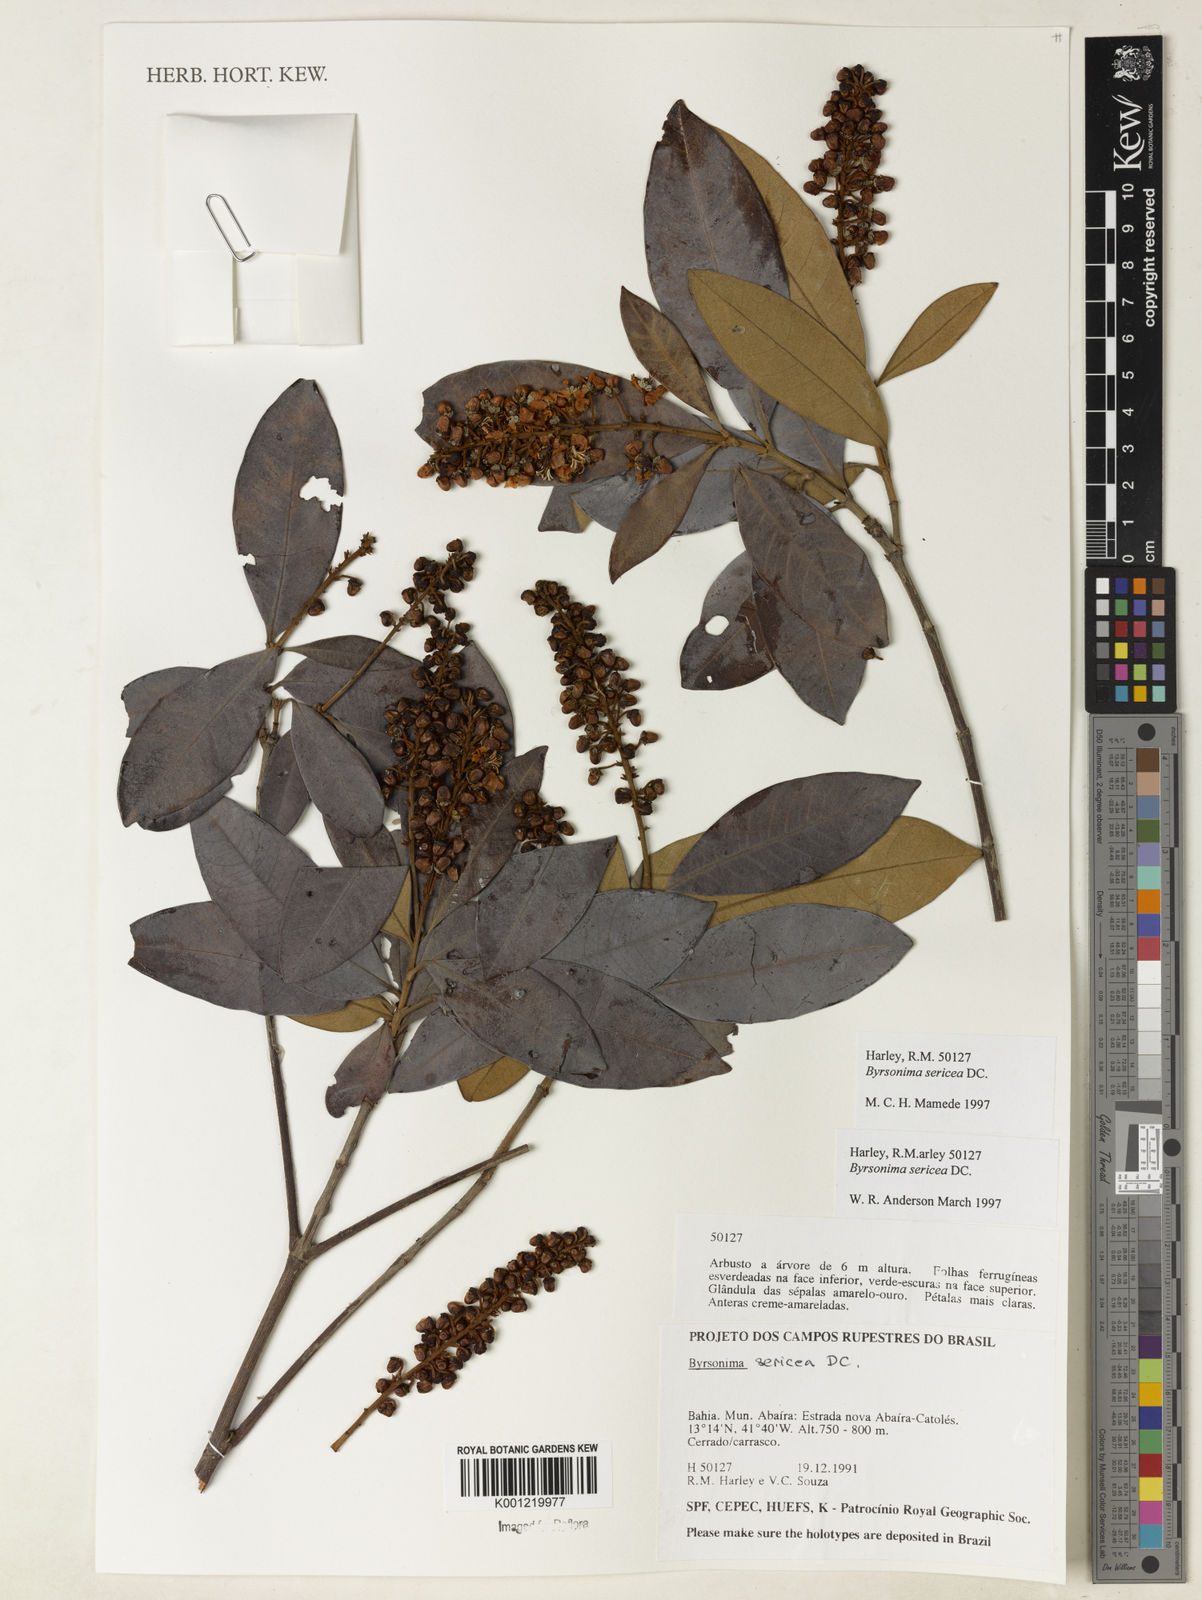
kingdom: Plantae
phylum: Tracheophyta
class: Magnoliopsida
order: Malpighiales
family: Malpighiaceae
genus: Byrsonima
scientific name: Byrsonima sericea
